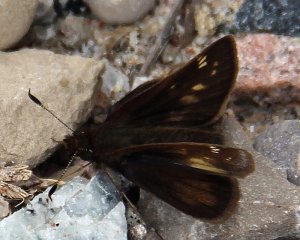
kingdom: Animalia
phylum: Arthropoda
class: Insecta
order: Lepidoptera
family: Hesperiidae
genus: Lon
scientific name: Lon hobomok
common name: Hobomok Skipper
